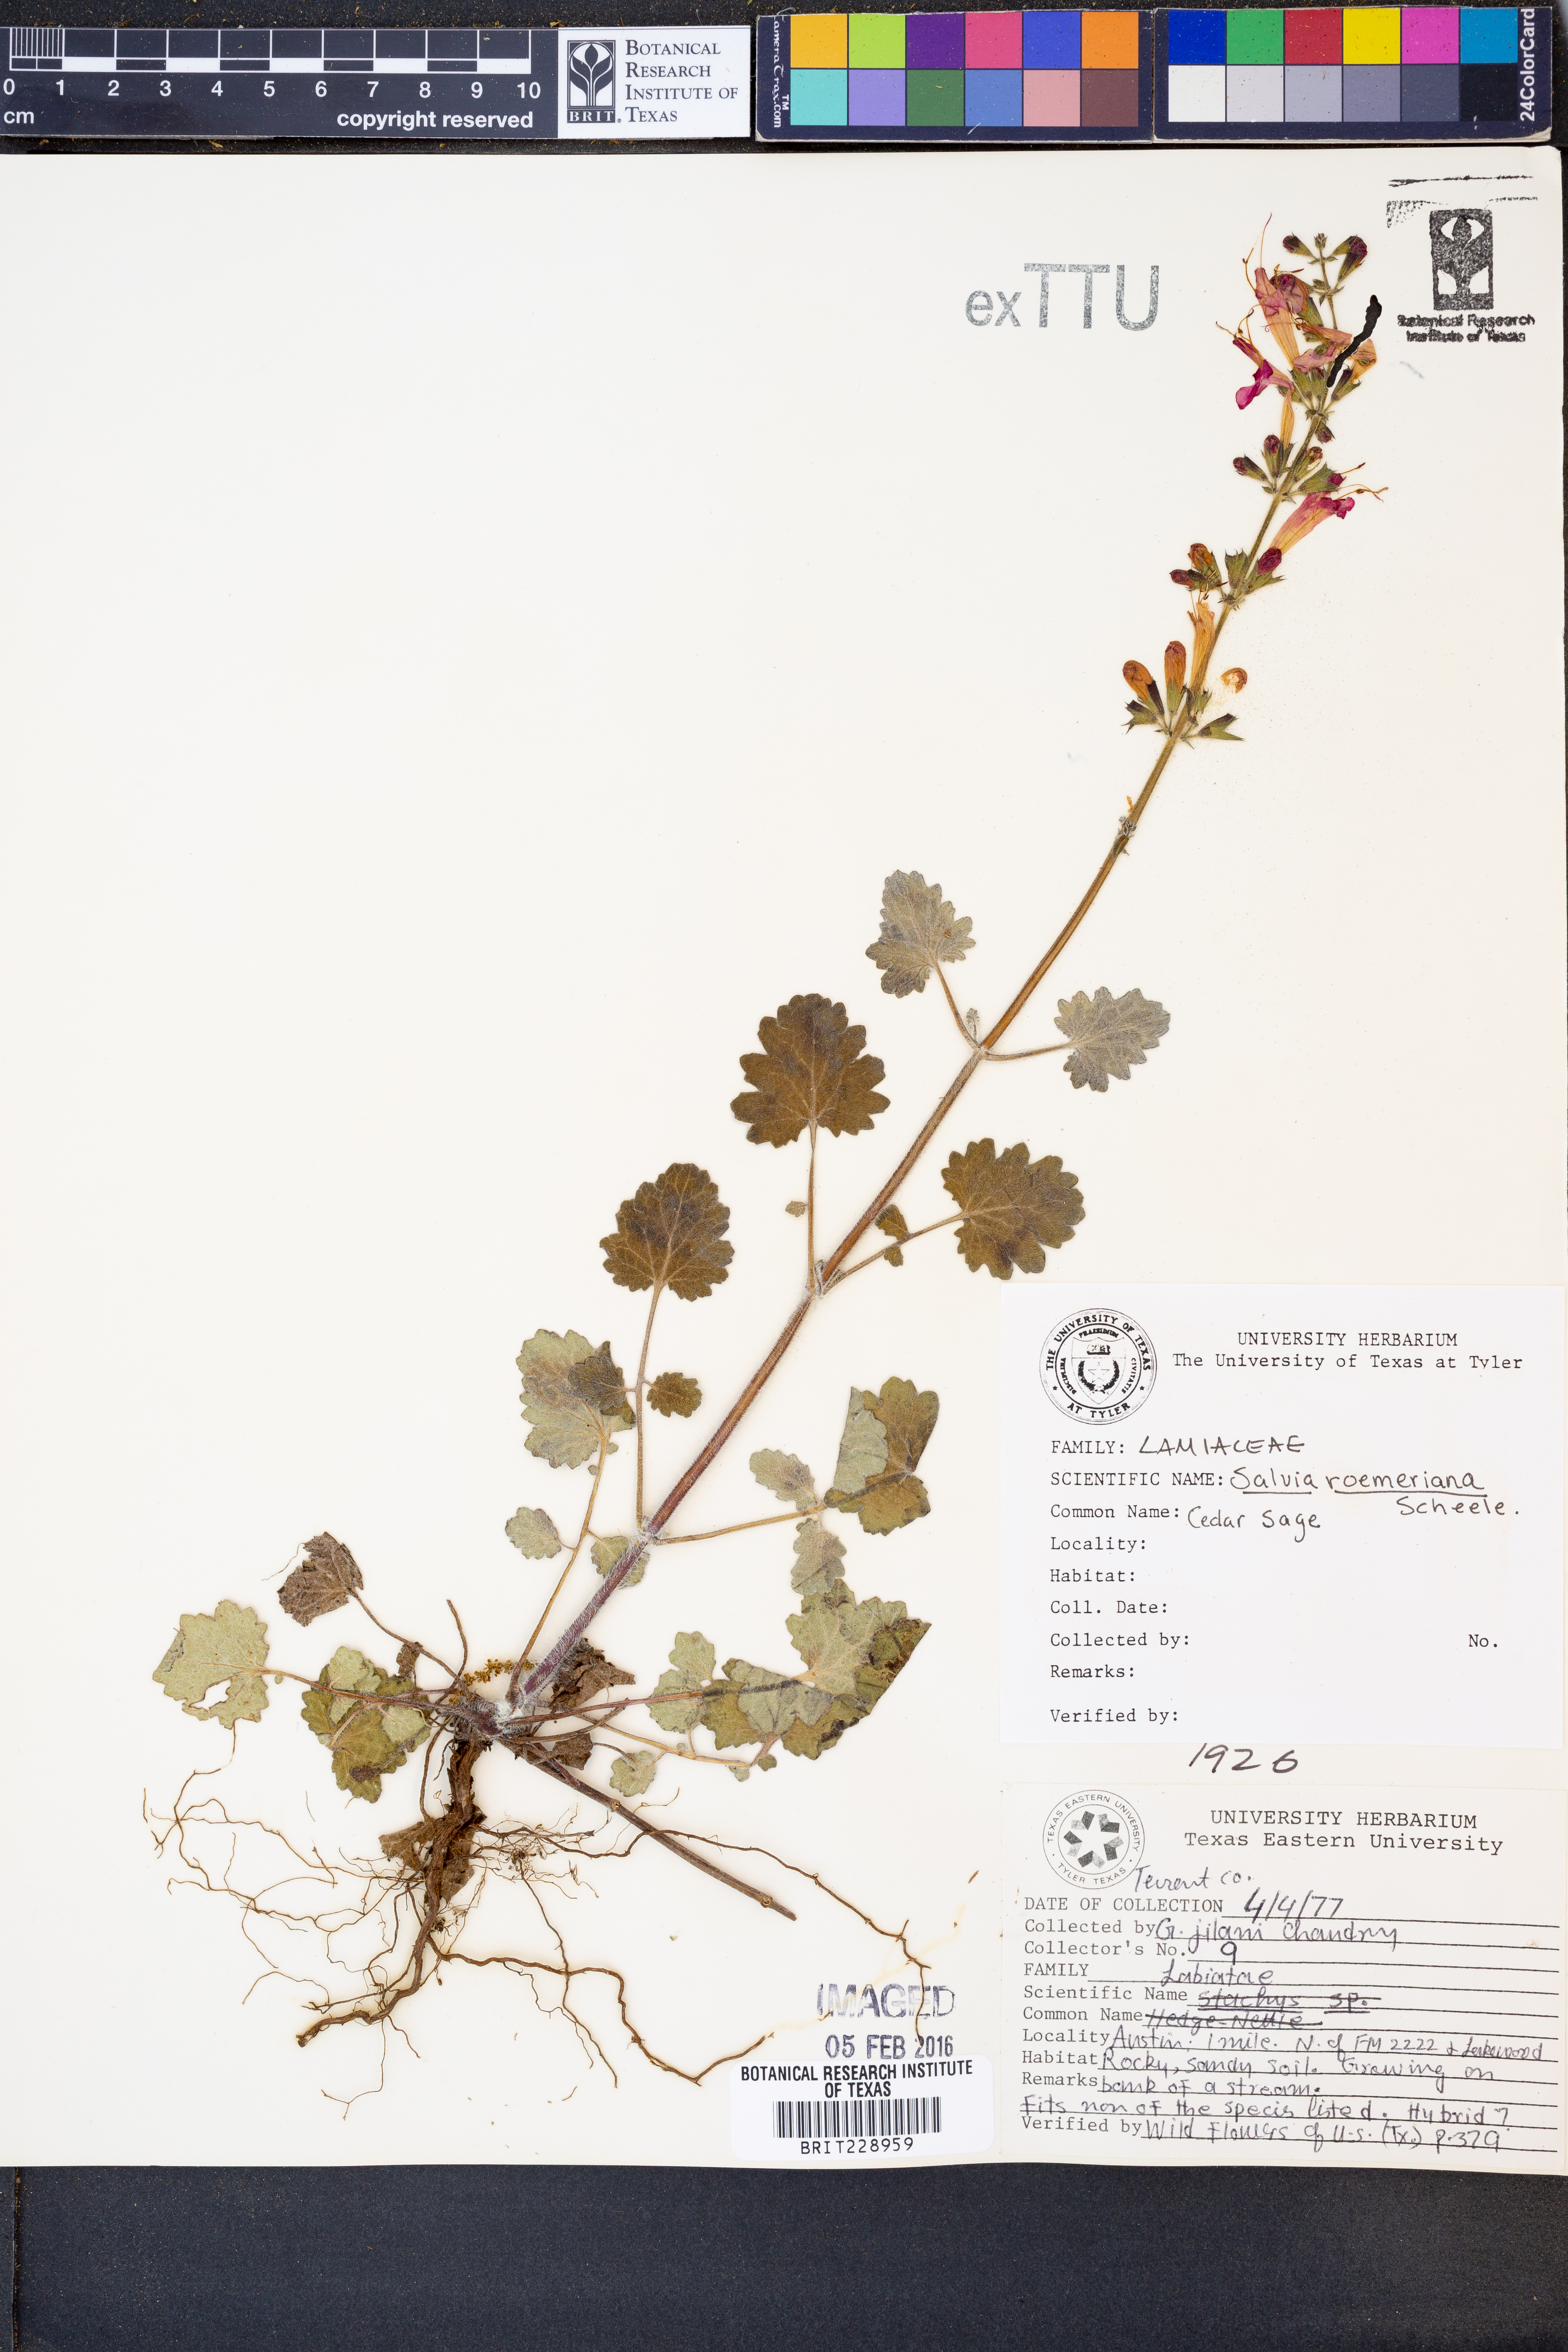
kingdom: Plantae
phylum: Tracheophyta
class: Magnoliopsida
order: Lamiales
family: Lamiaceae
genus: Salvia
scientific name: Salvia roemeriana
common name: Cedar sage
